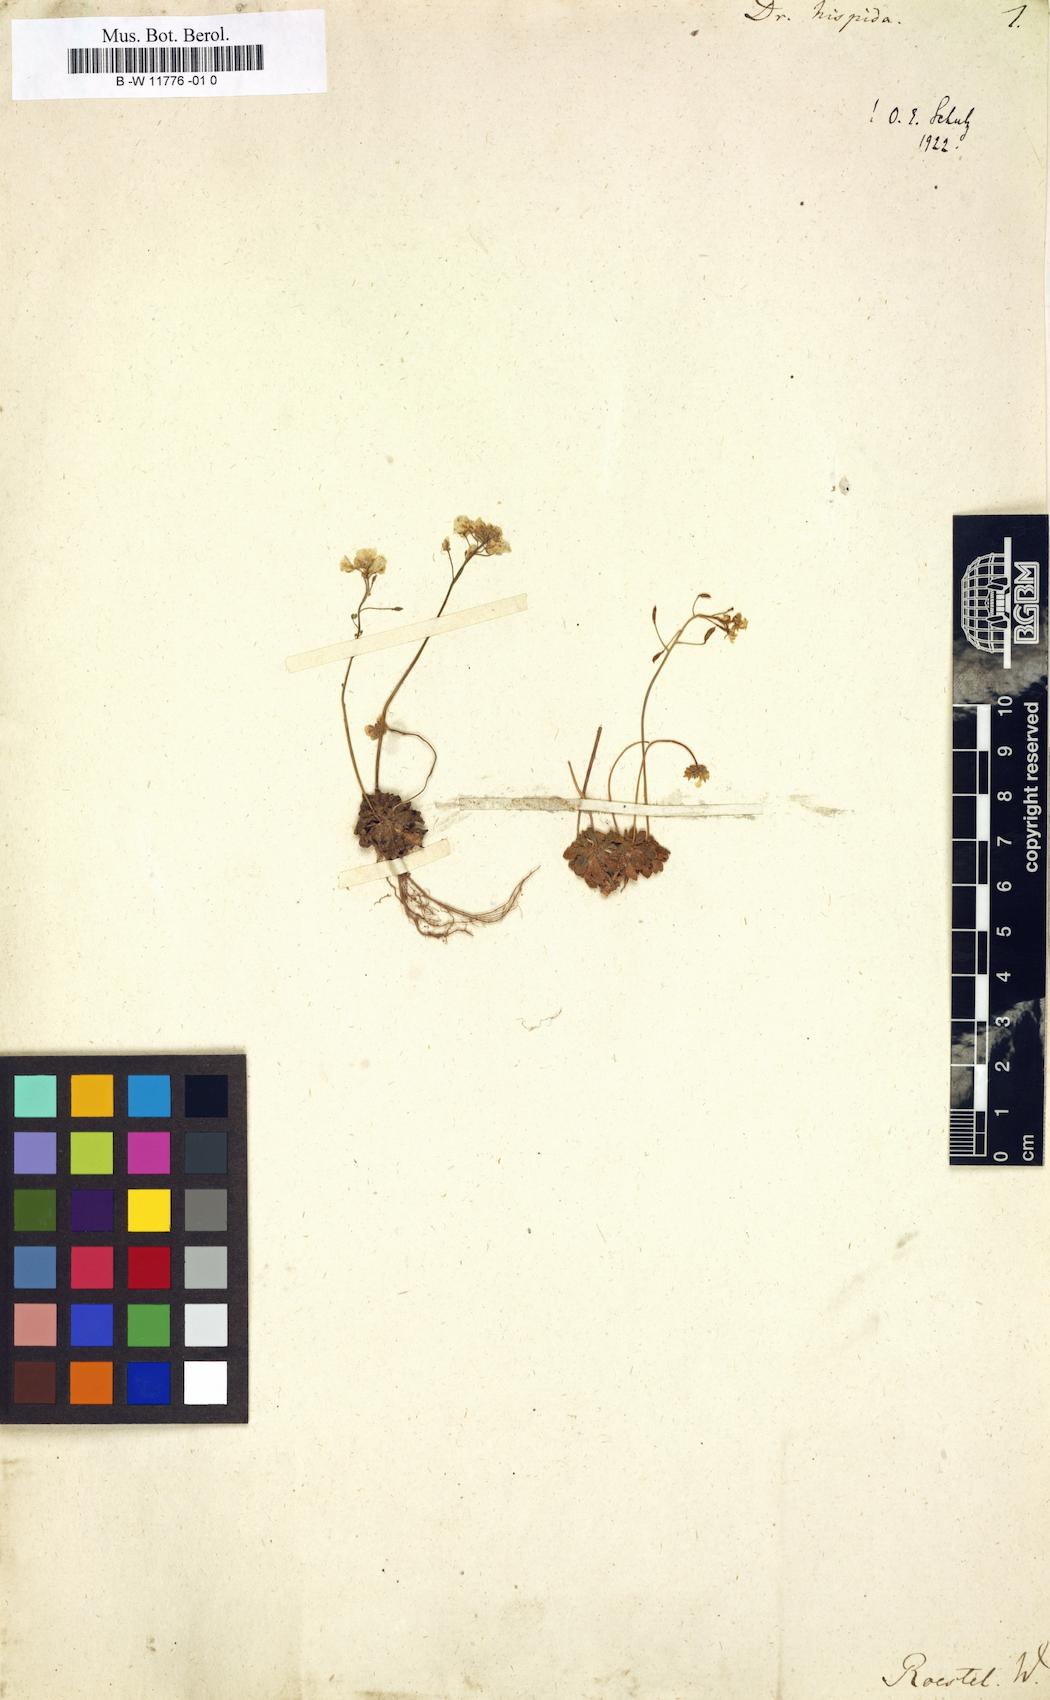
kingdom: Plantae
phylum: Tracheophyta
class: Magnoliopsida
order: Brassicales
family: Brassicaceae
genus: Draba
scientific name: Draba hispida
